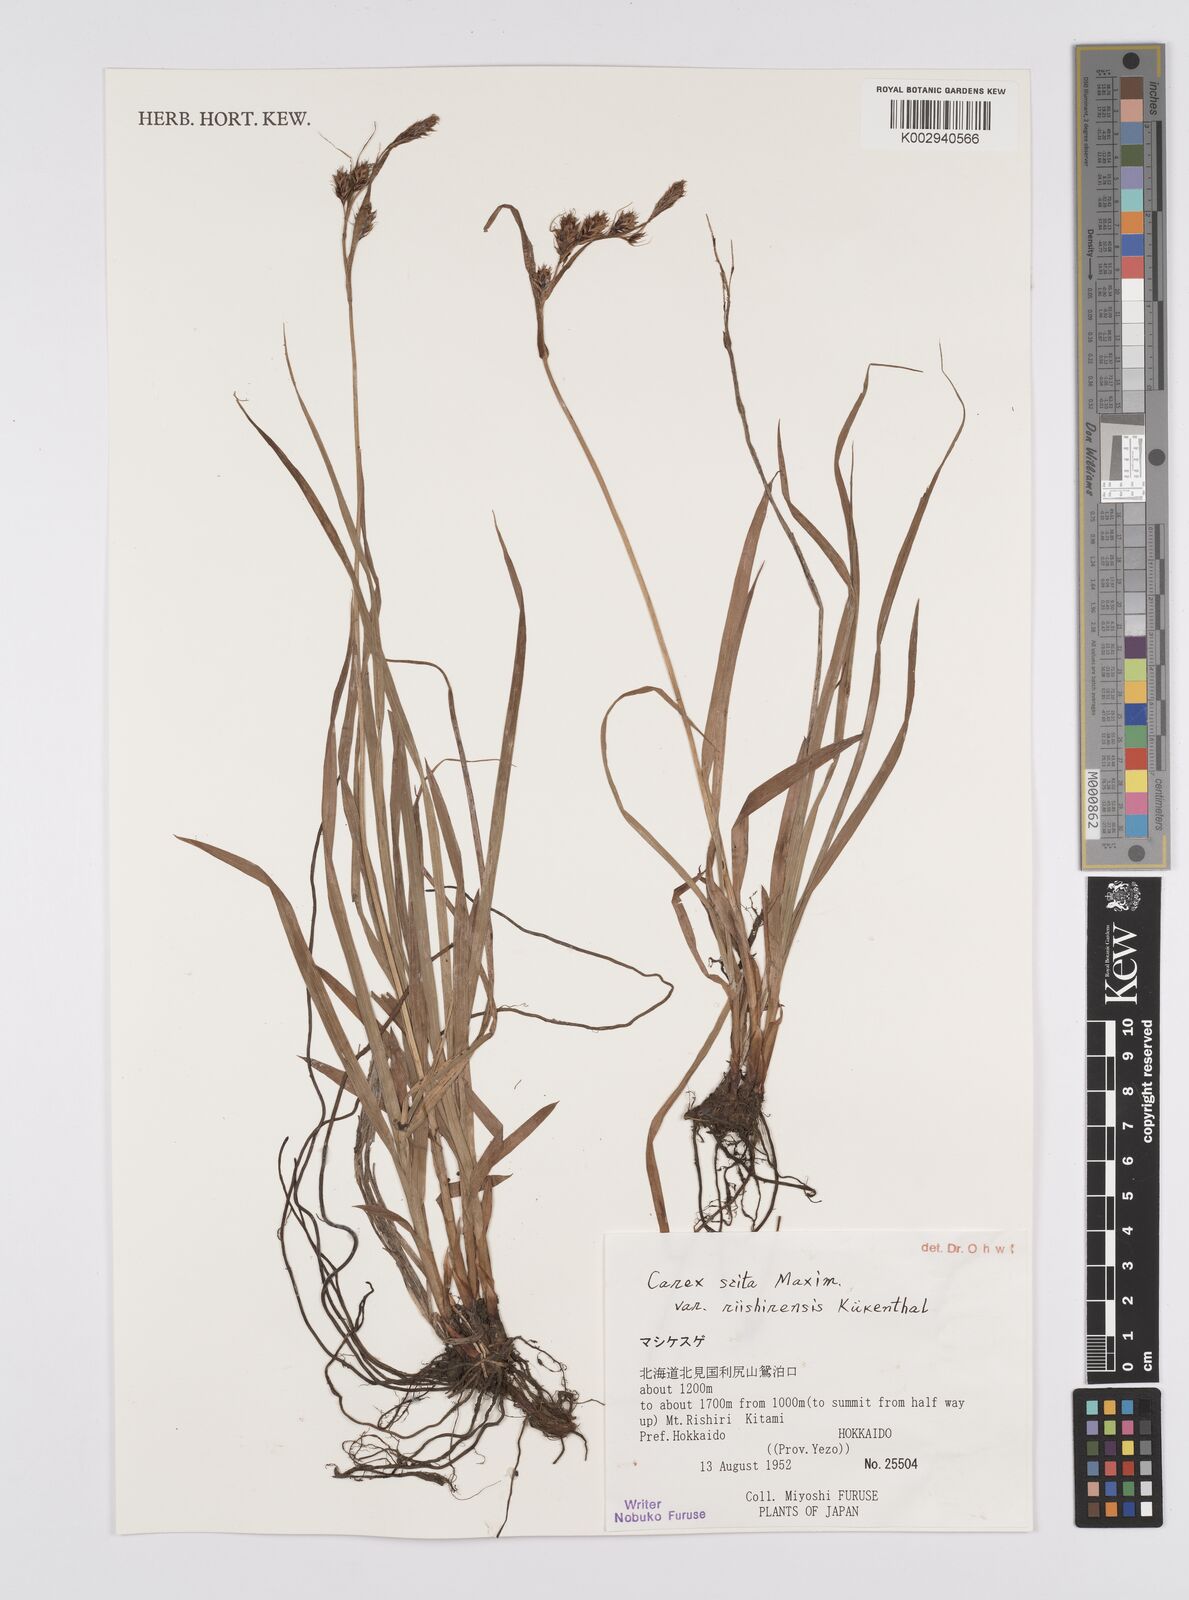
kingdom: Plantae
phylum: Tracheophyta
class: Liliopsida
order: Poales
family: Cyperaceae
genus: Carex
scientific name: Carex scita
